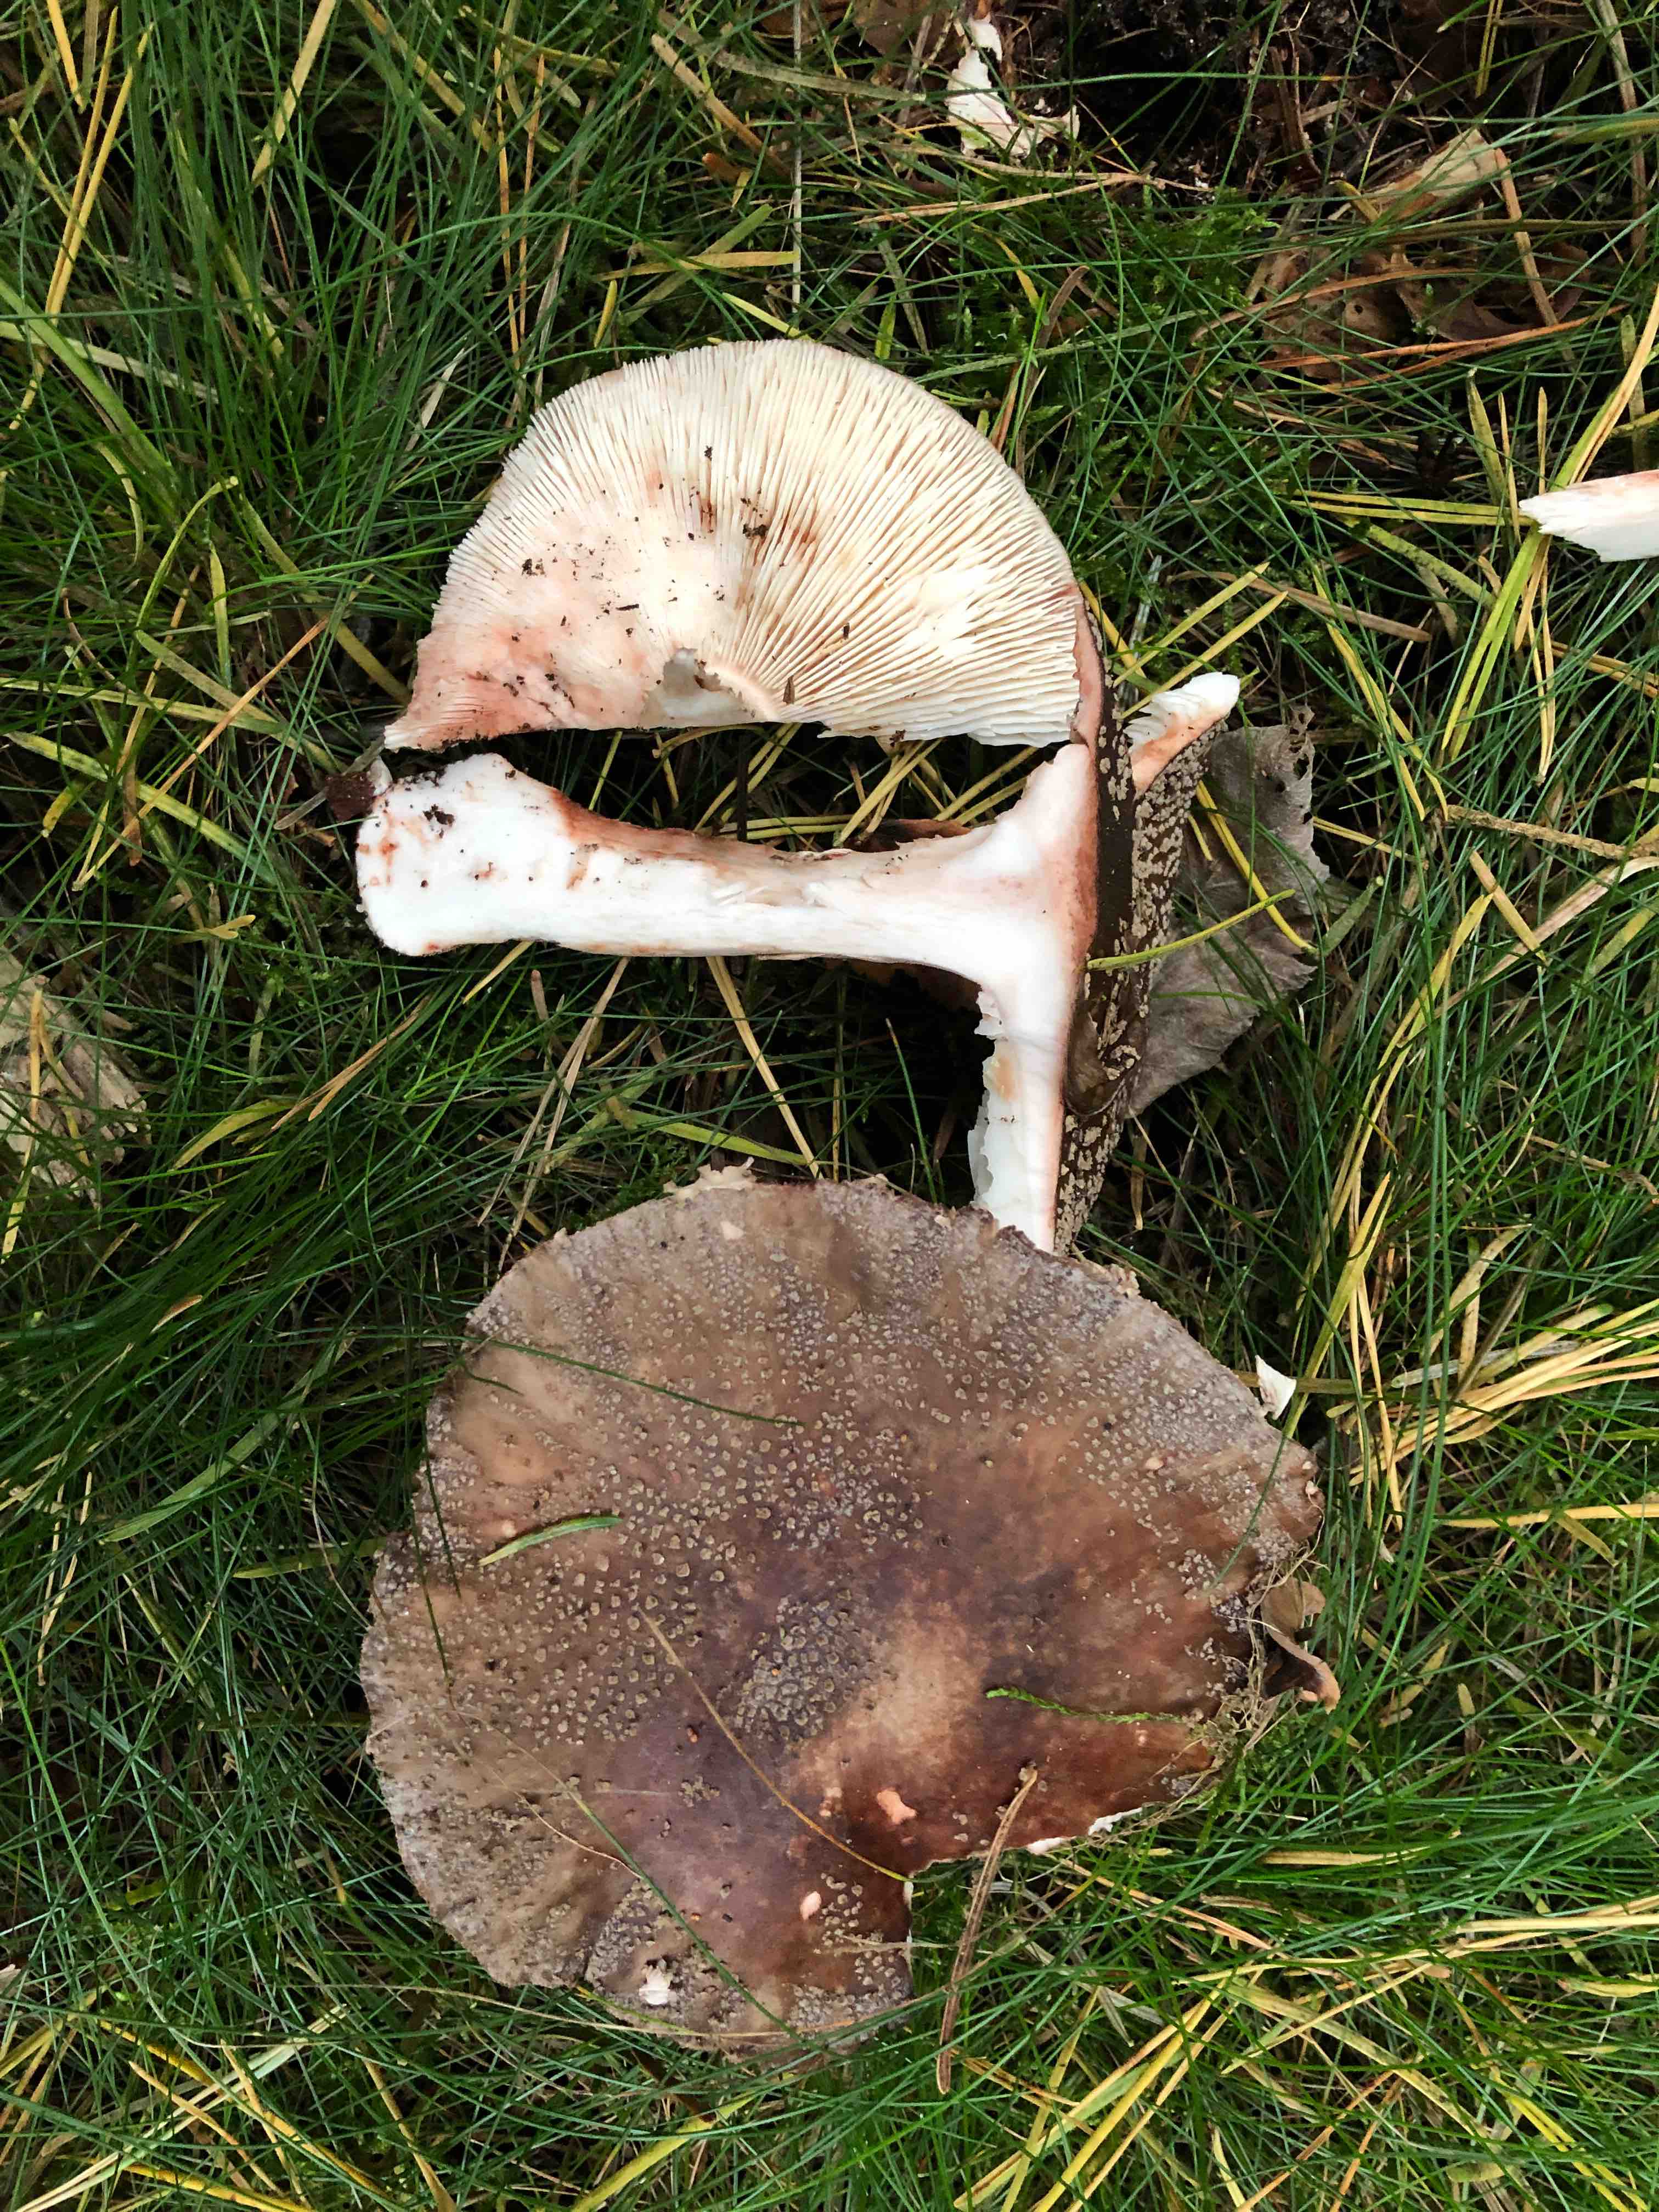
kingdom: Fungi
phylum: Basidiomycota
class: Agaricomycetes
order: Agaricales
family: Amanitaceae
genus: Amanita
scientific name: Amanita rubescens
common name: rødmende fluesvamp
